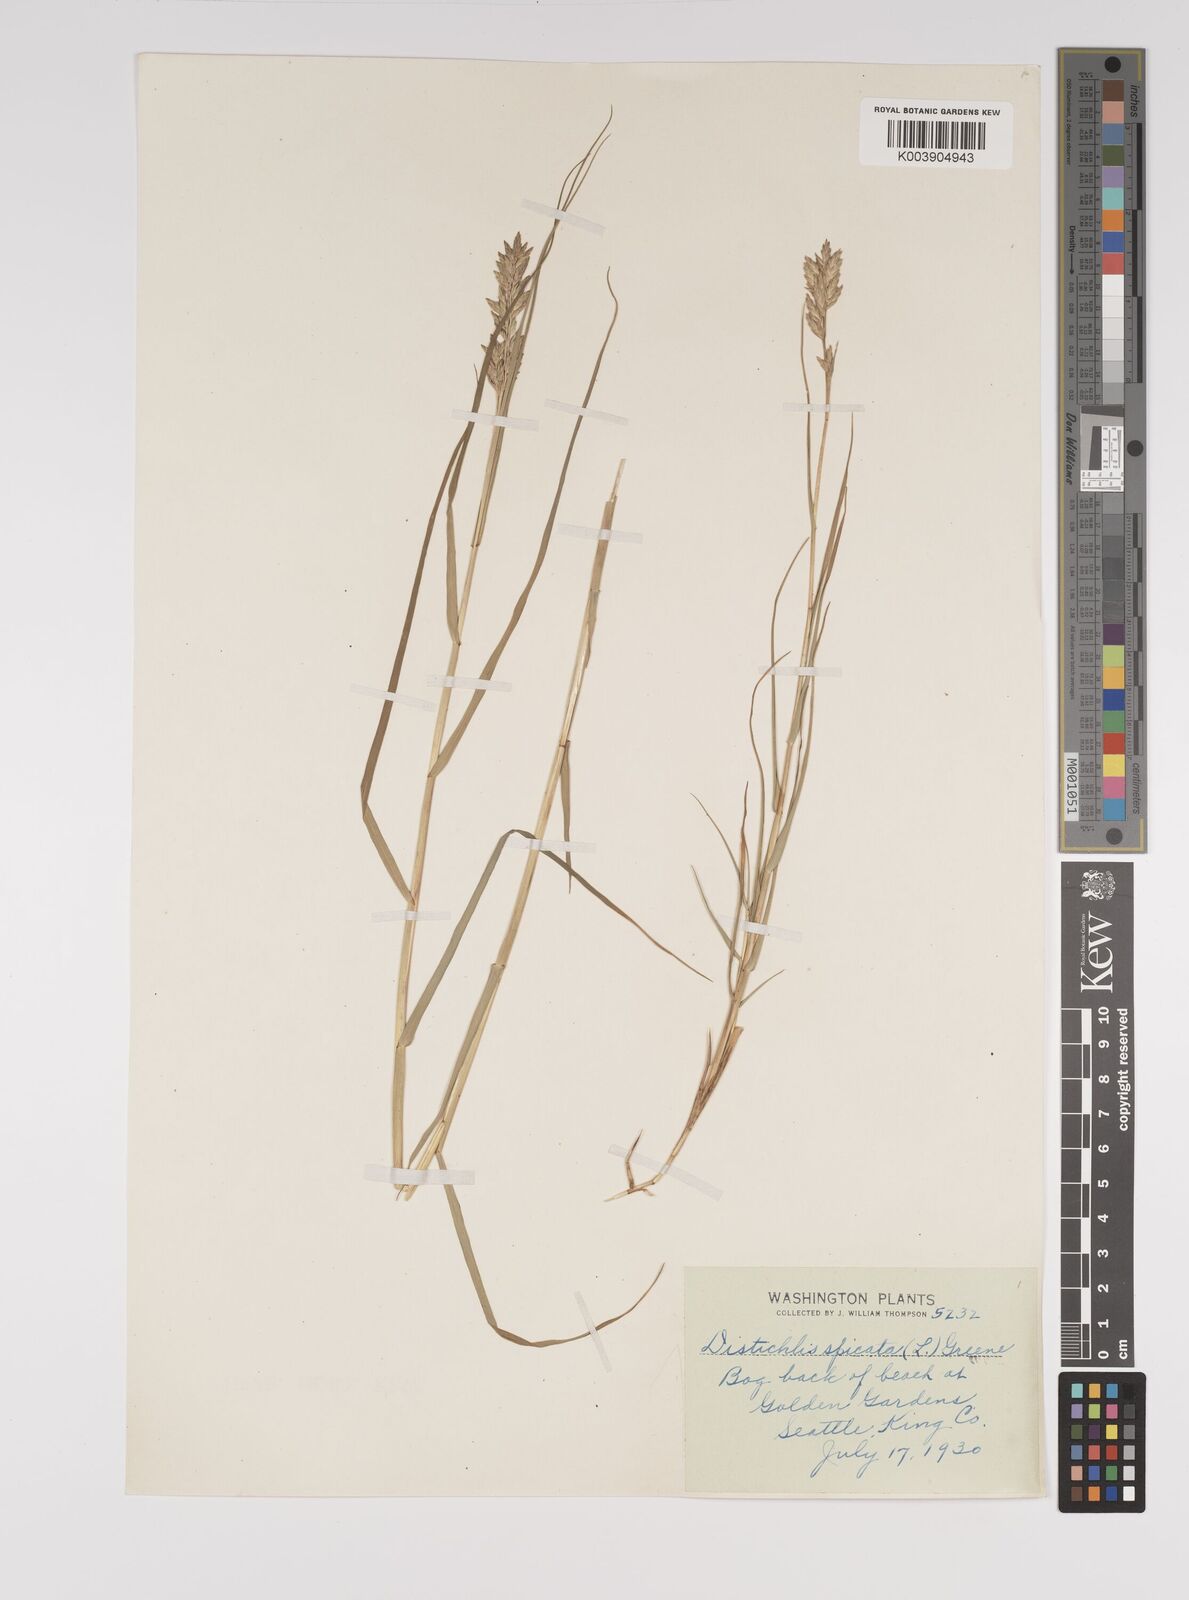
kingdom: Plantae
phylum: Tracheophyta
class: Liliopsida
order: Poales
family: Poaceae
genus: Distichlis
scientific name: Distichlis spicata
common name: Saltgrass
